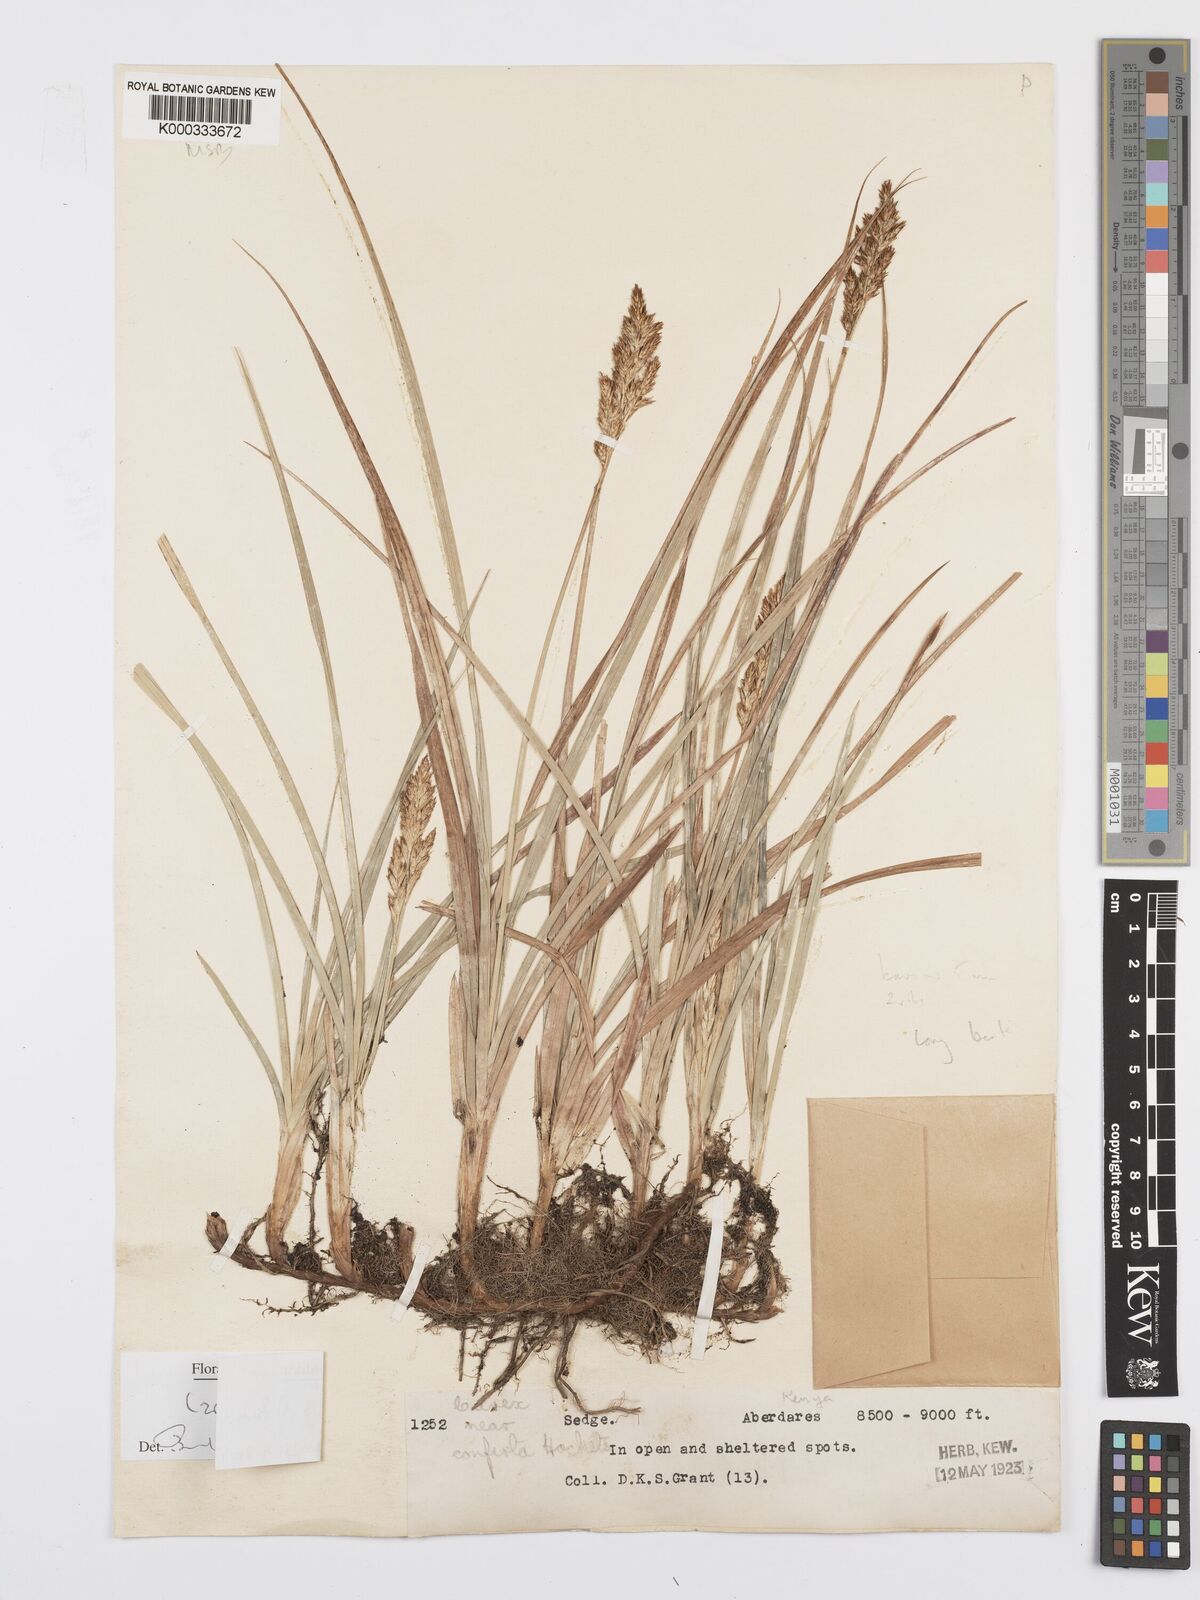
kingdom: Plantae
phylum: Tracheophyta
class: Liliopsida
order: Poales
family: Cyperaceae
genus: Carex
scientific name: Carex conferta
